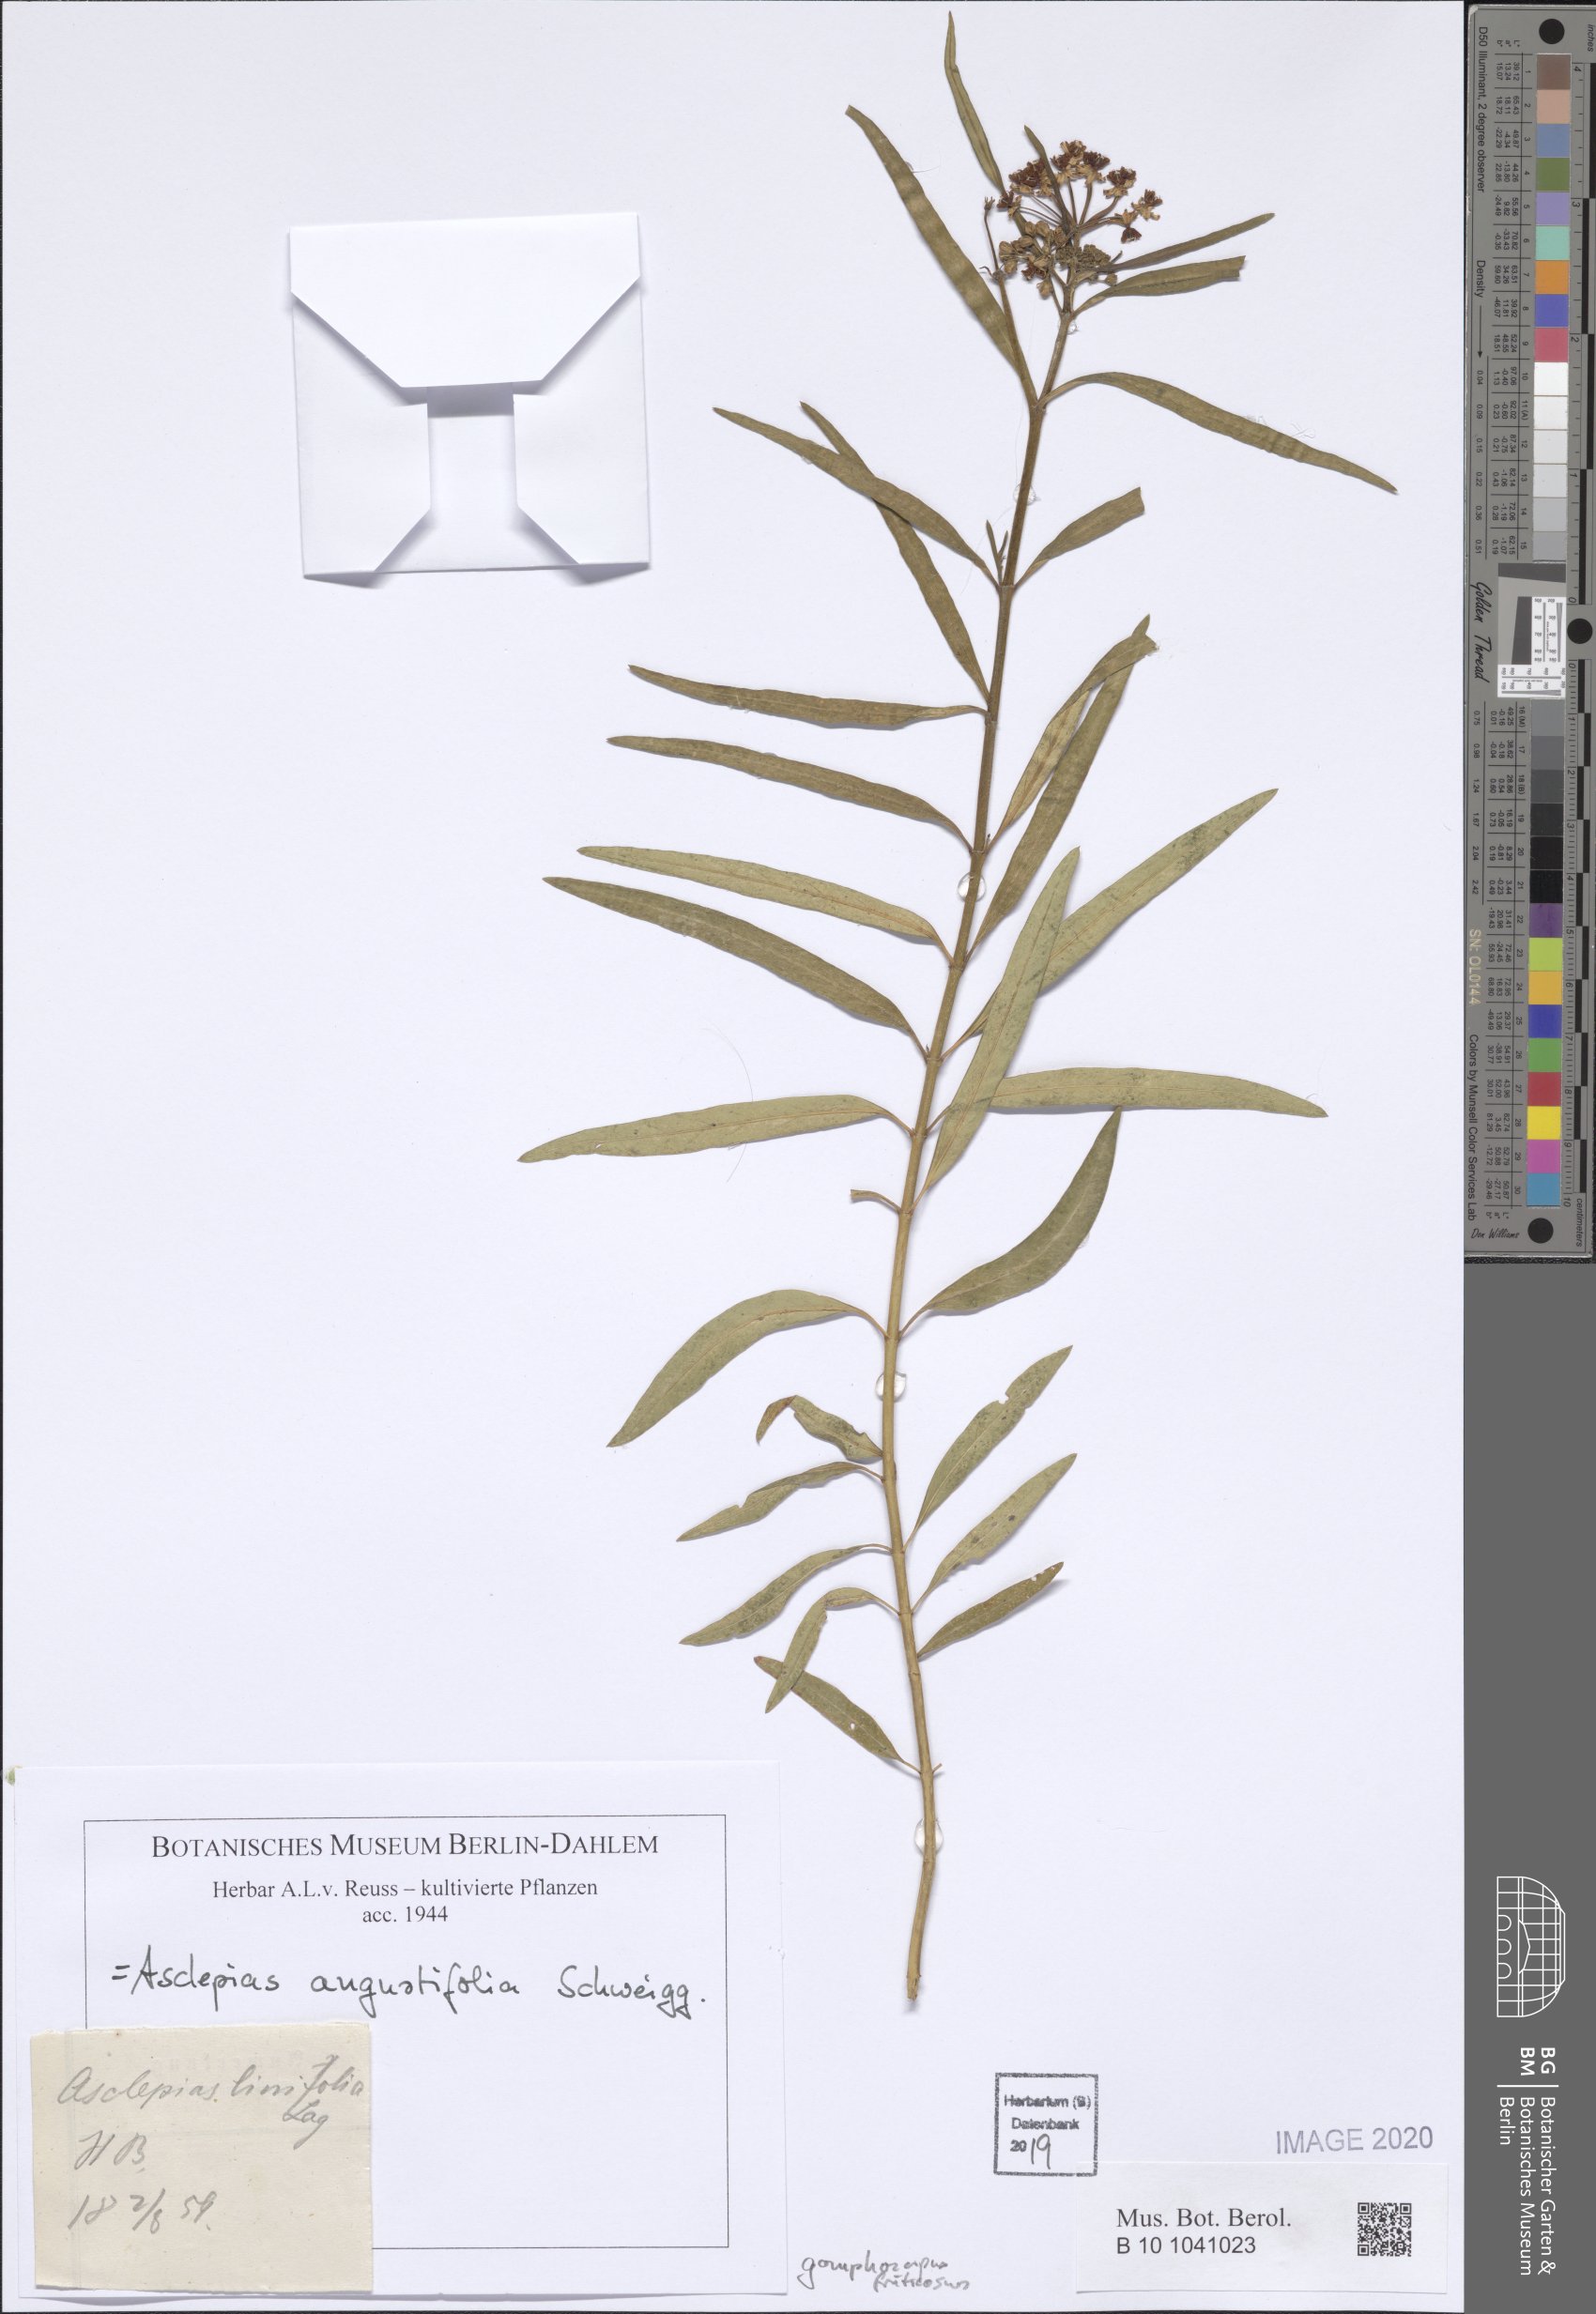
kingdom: Plantae
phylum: Tracheophyta
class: Magnoliopsida
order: Gentianales
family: Apocynaceae
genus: Asclepias
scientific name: Asclepias angustifolia
